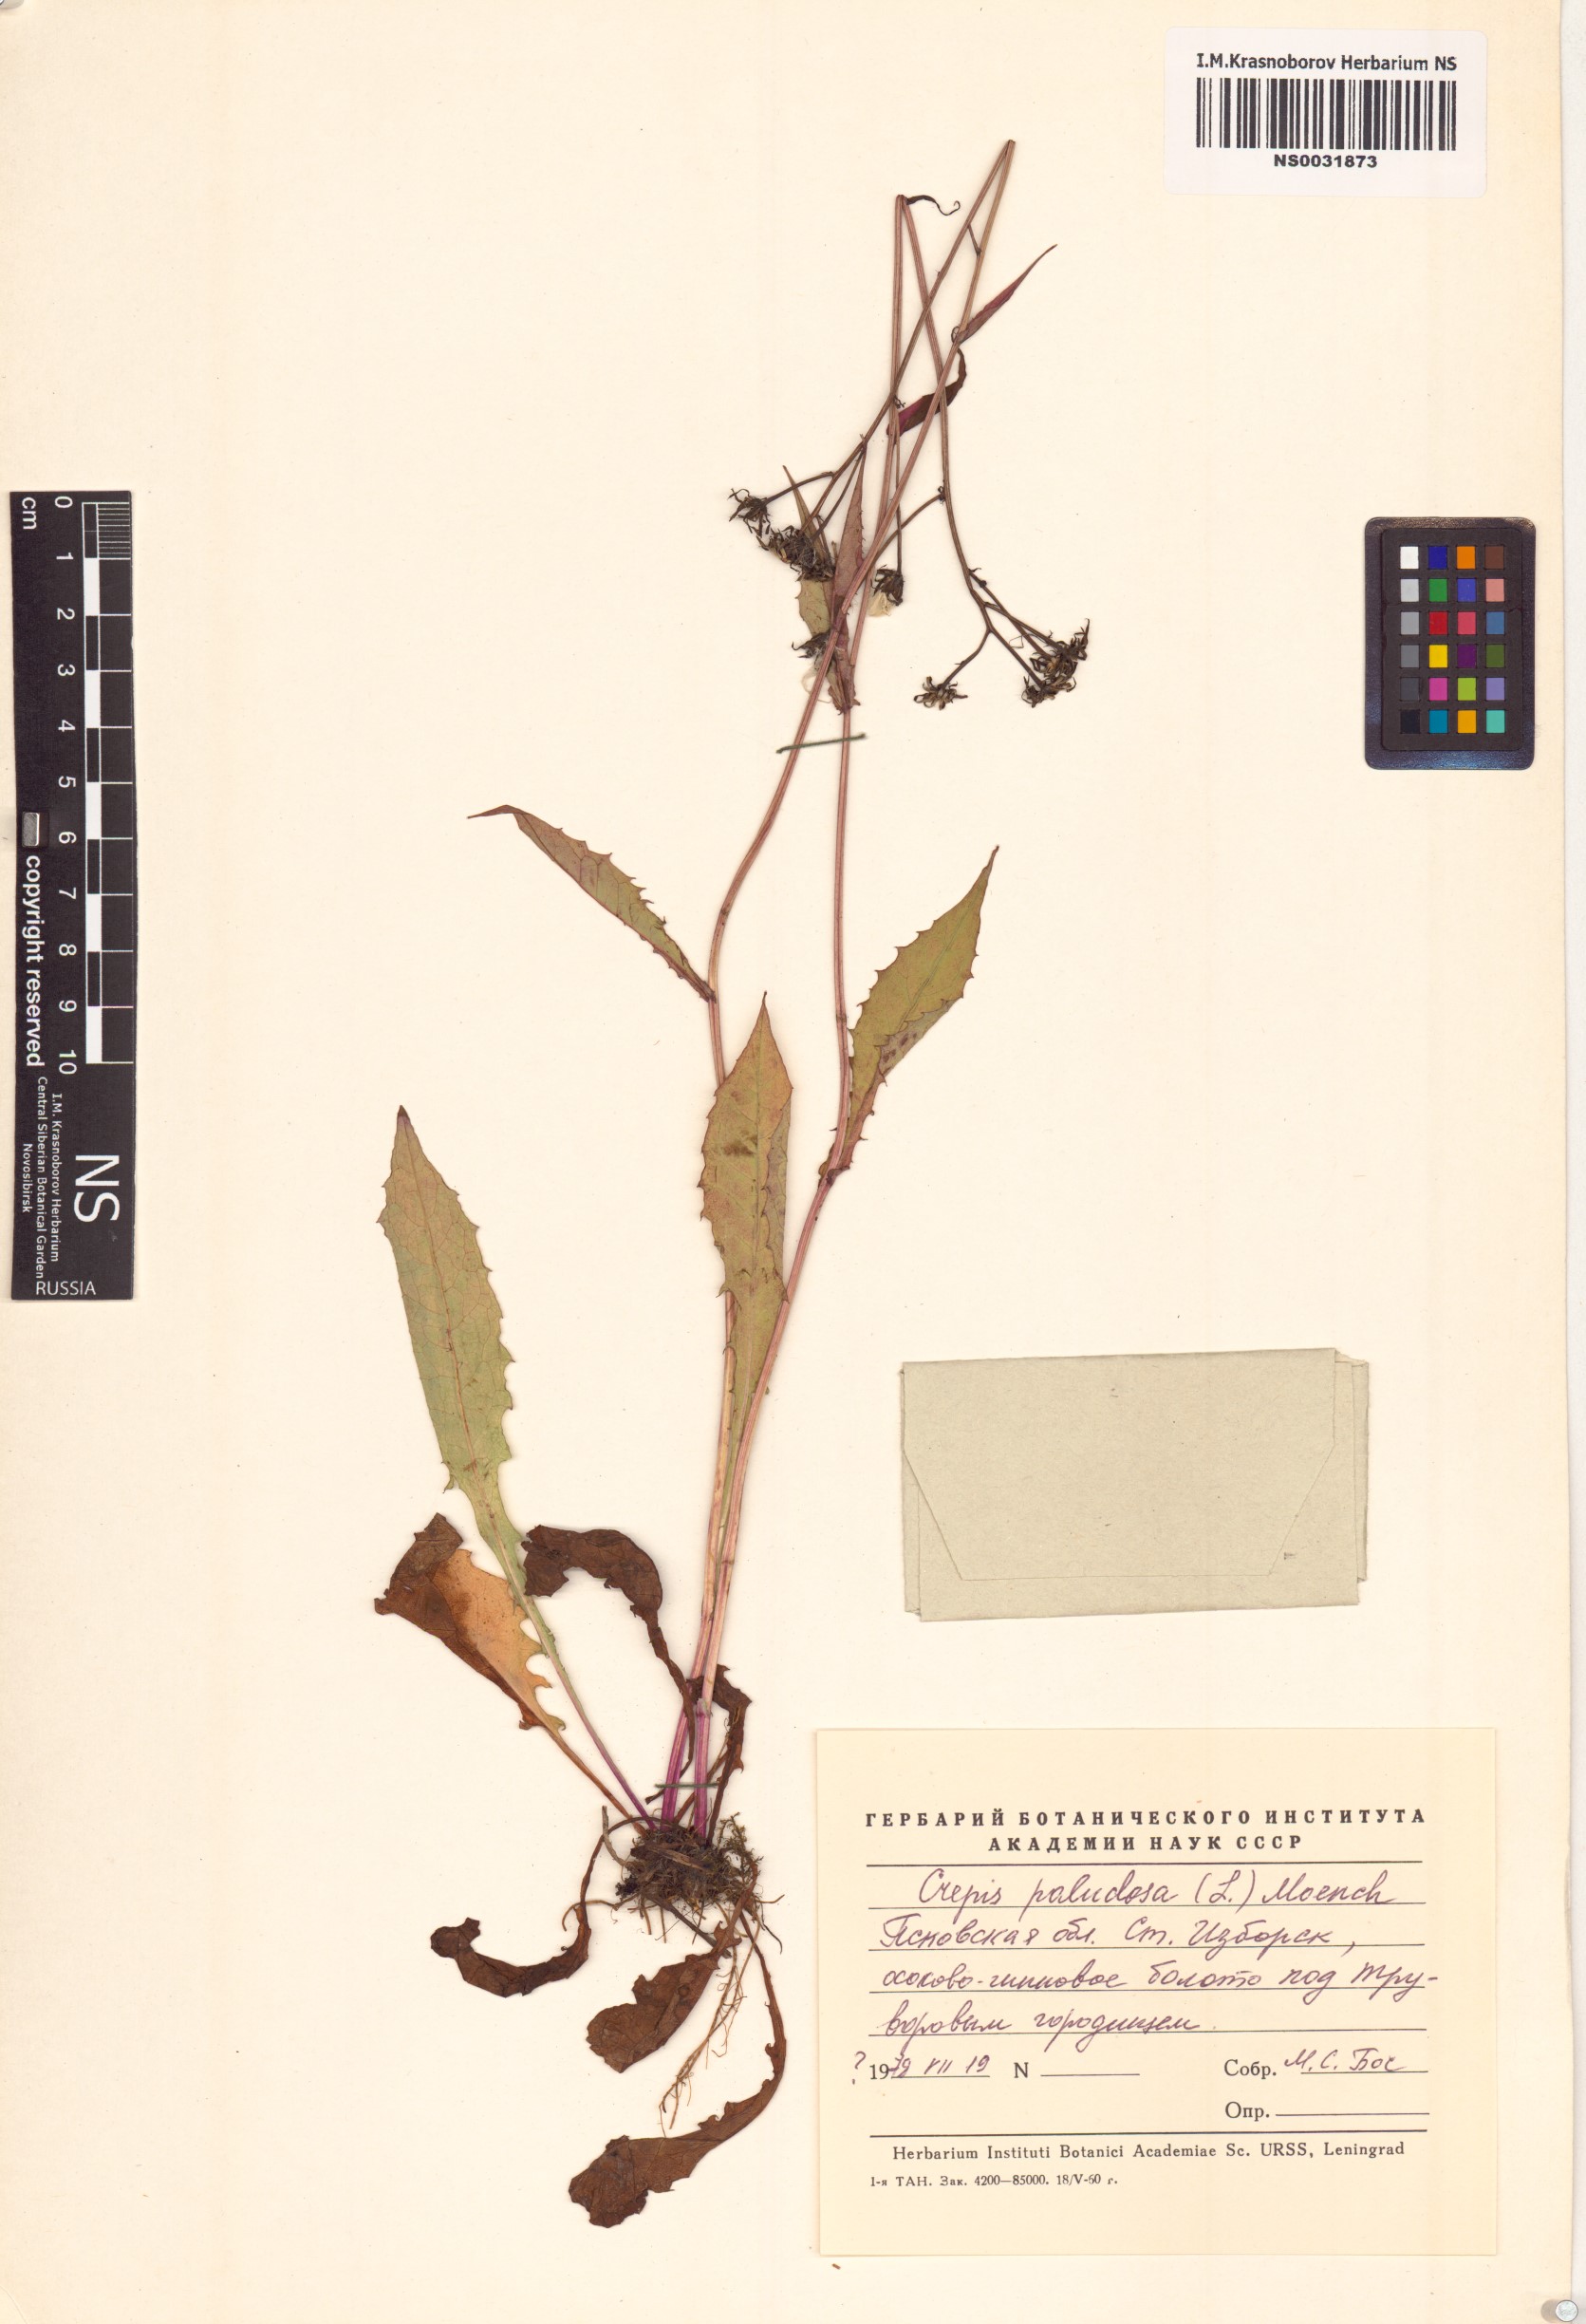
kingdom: Plantae
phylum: Tracheophyta
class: Magnoliopsida
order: Asterales
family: Asteraceae
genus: Crepis
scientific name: Crepis paludosa
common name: Marsh hawk's-beard
